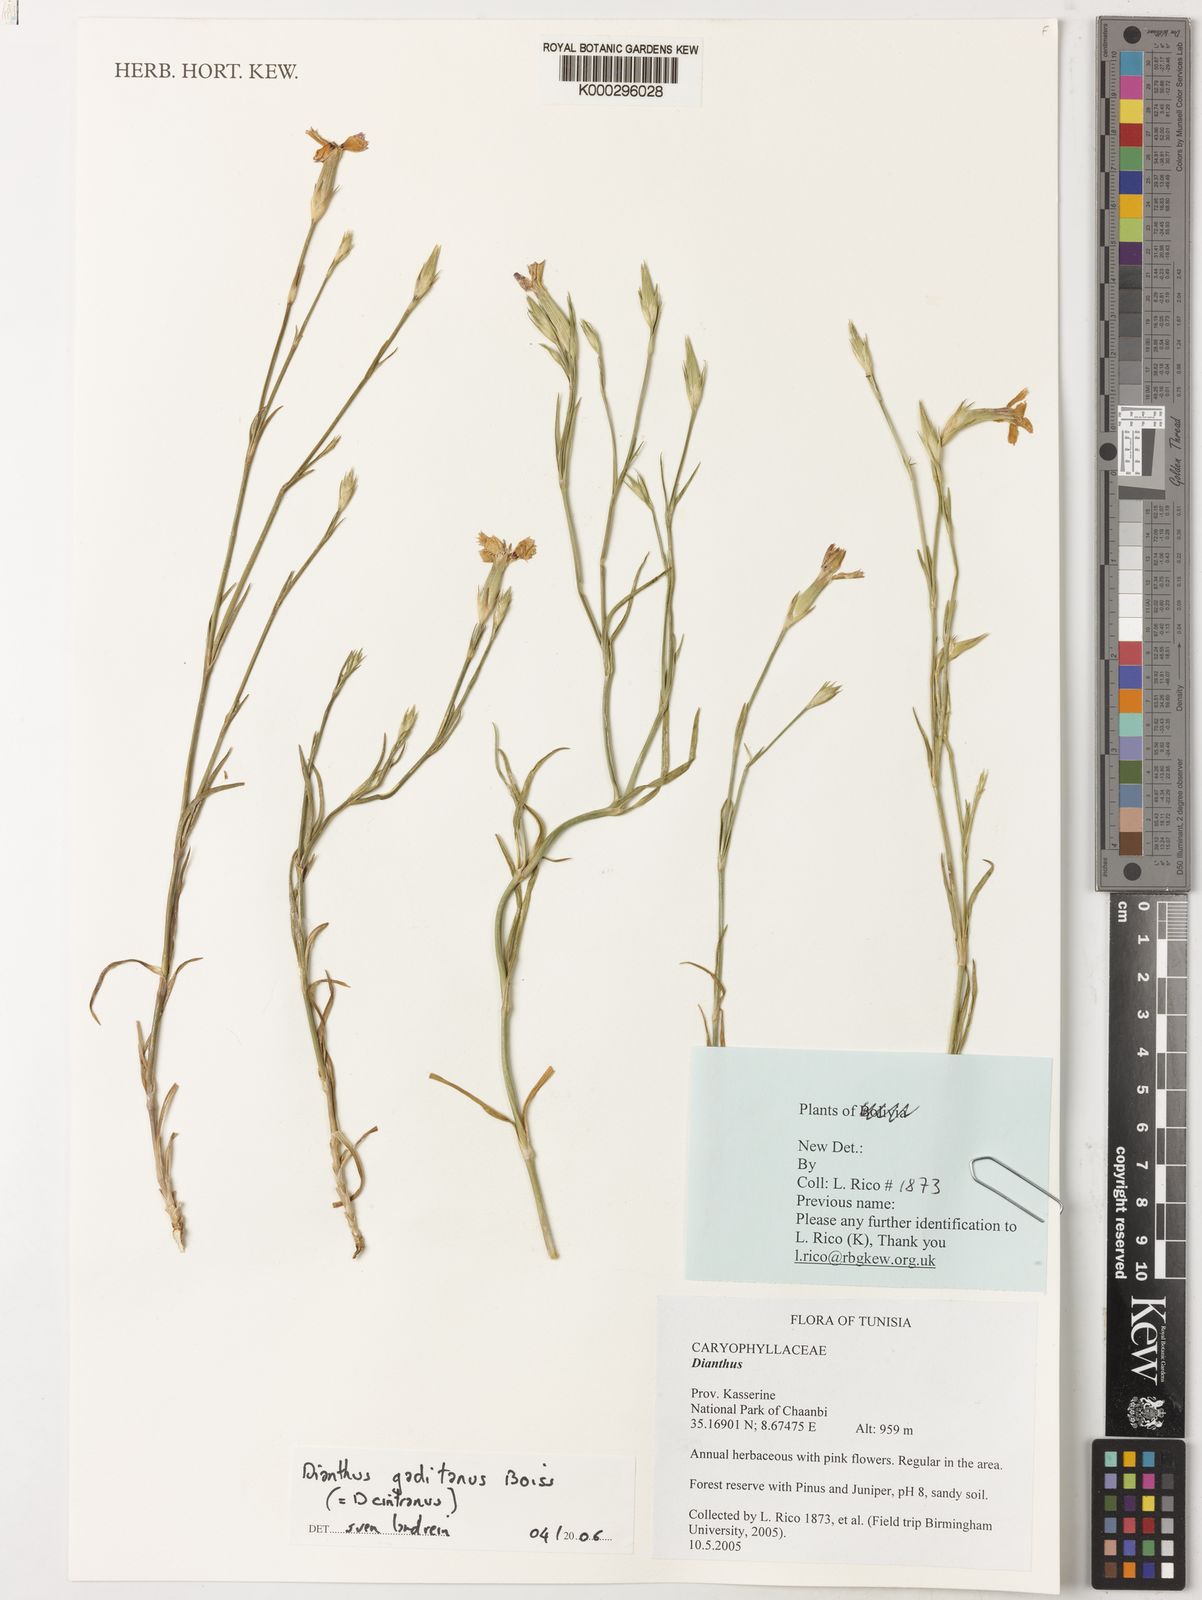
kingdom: Plantae
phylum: Tracheophyta
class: Magnoliopsida
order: Caryophyllales
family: Caryophyllaceae
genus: Dianthus
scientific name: Dianthus anticarius
